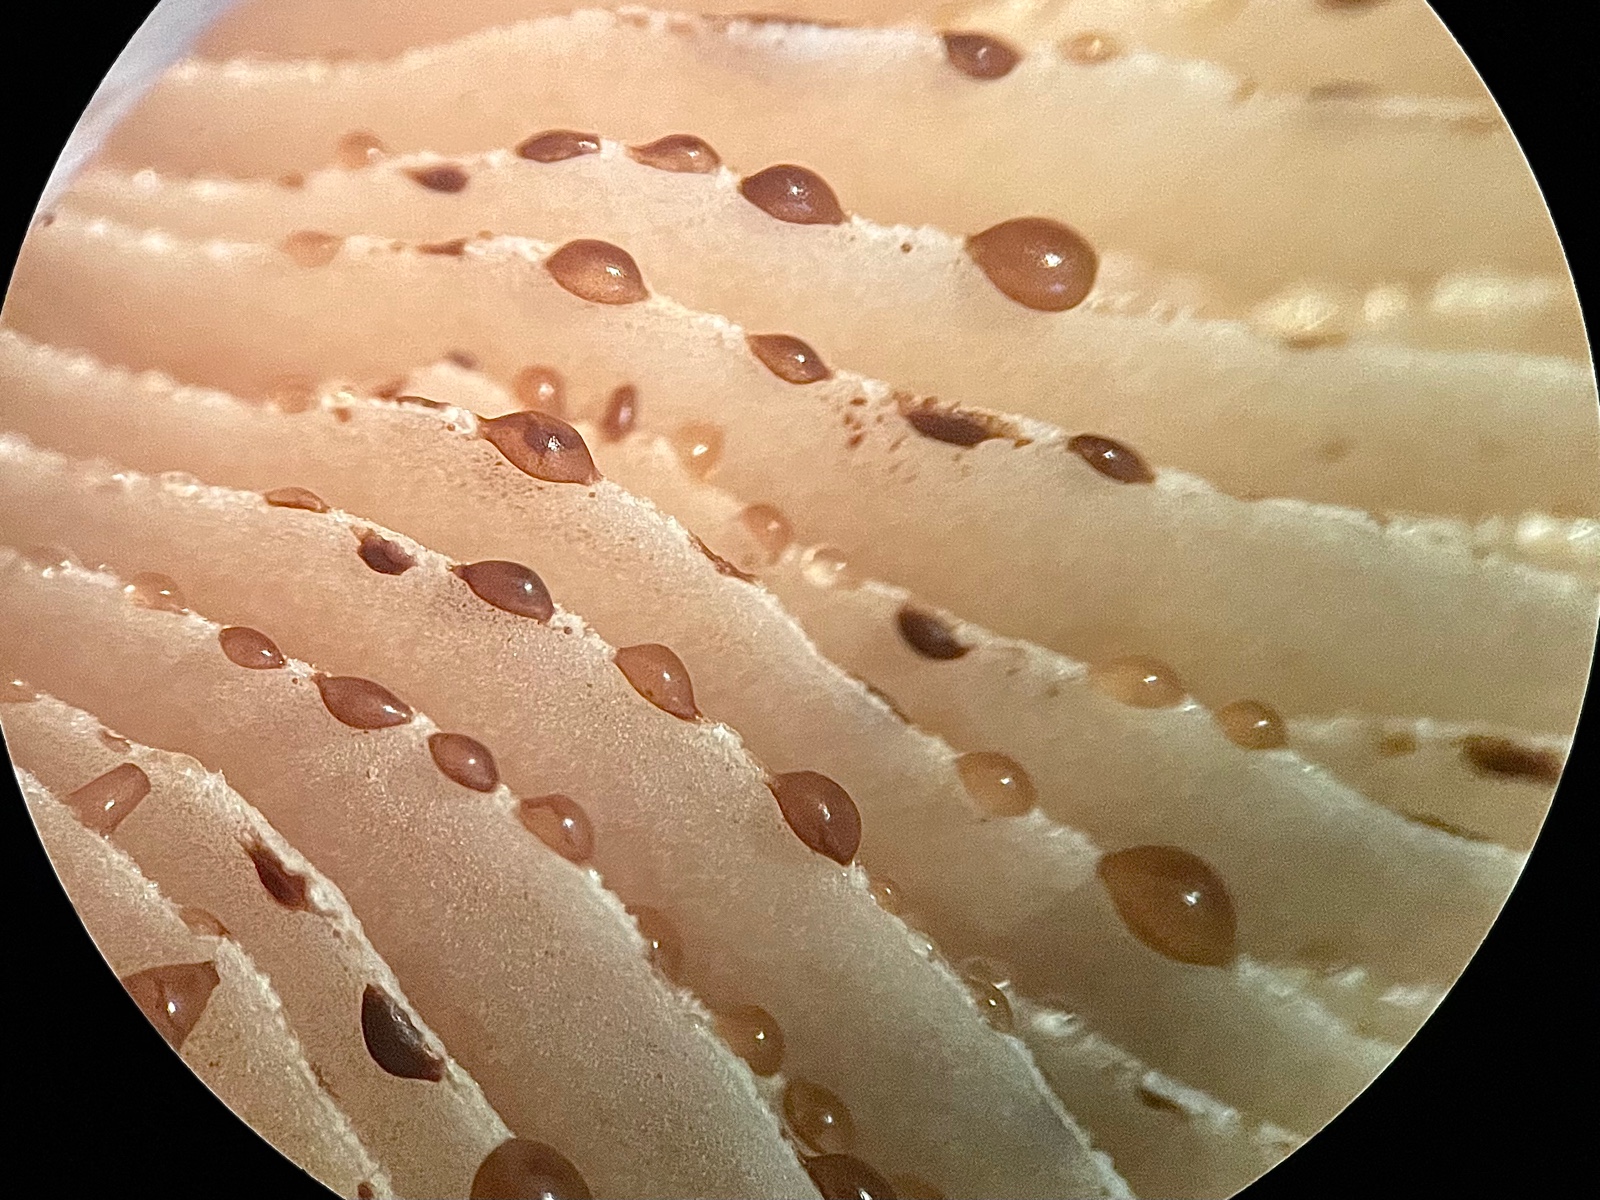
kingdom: Fungi
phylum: Basidiomycota
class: Agaricomycetes
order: Agaricales
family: Hymenogastraceae
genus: Hebeloma
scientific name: Hebeloma crustuliniforme
